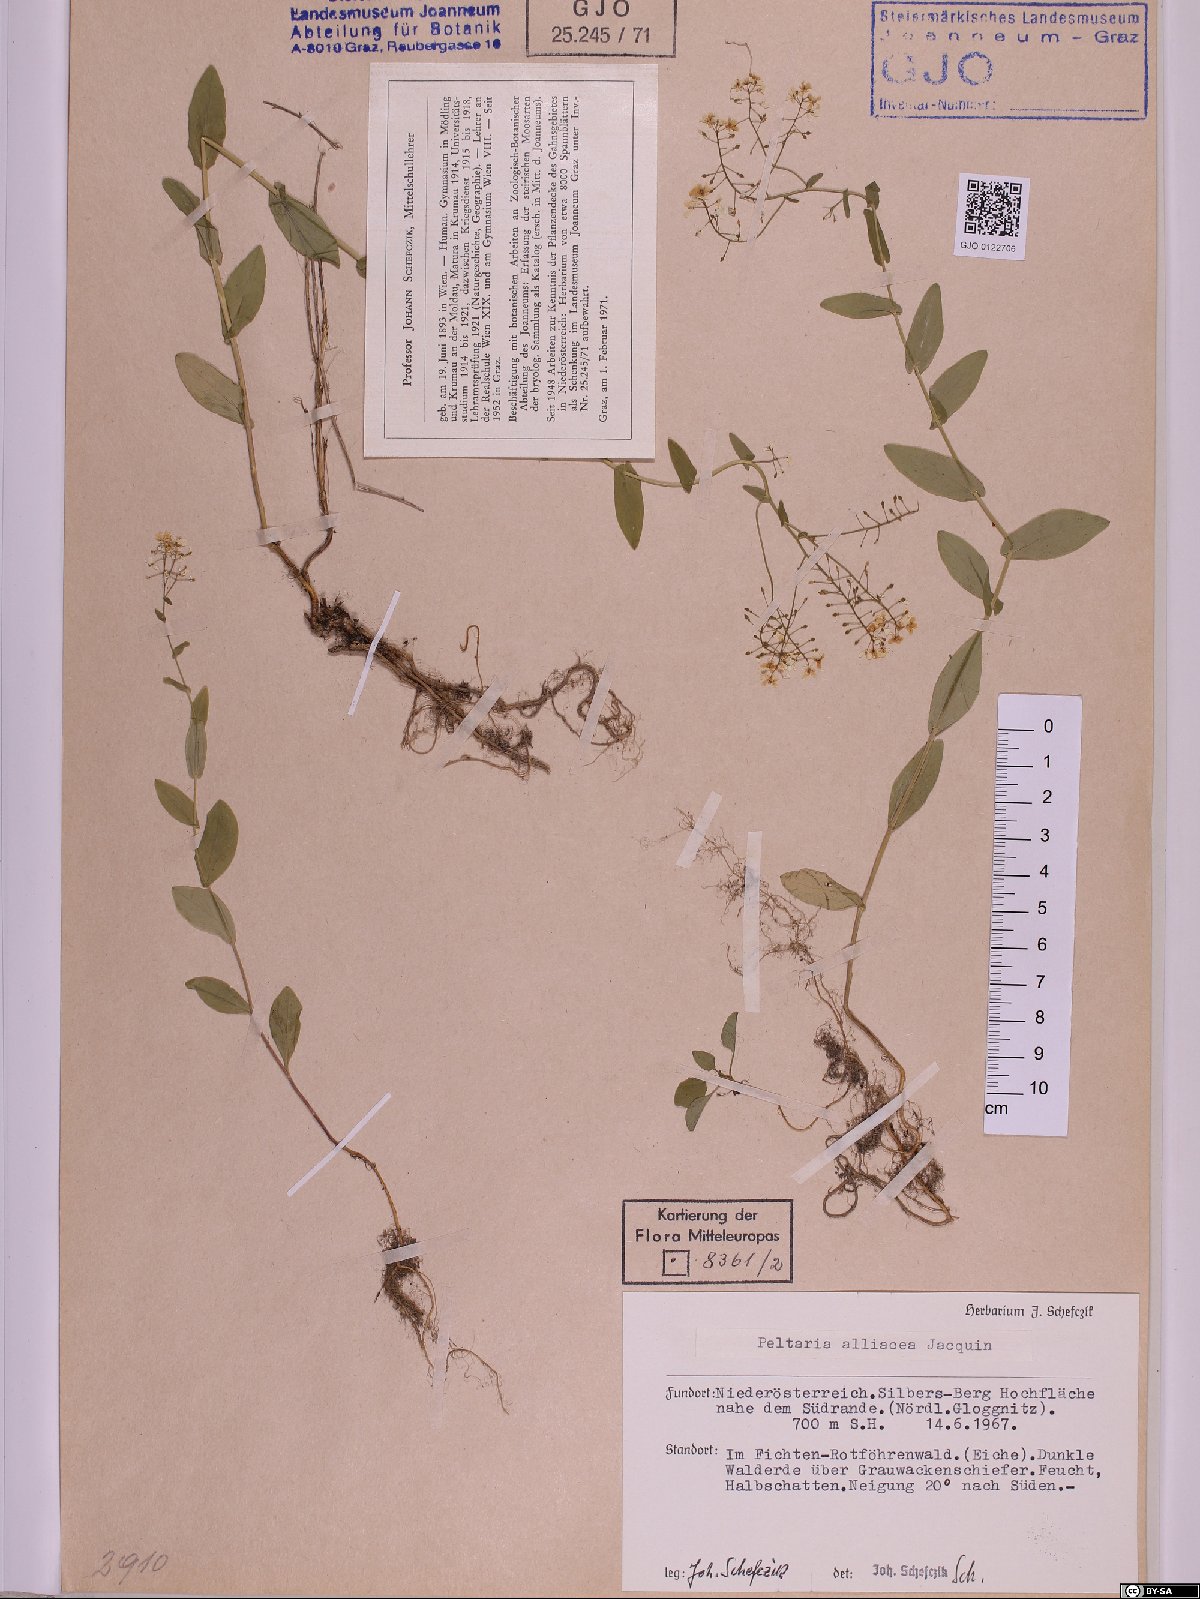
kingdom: Plantae
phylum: Tracheophyta
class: Magnoliopsida
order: Brassicales
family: Brassicaceae
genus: Peltaria
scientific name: Peltaria alliacea
